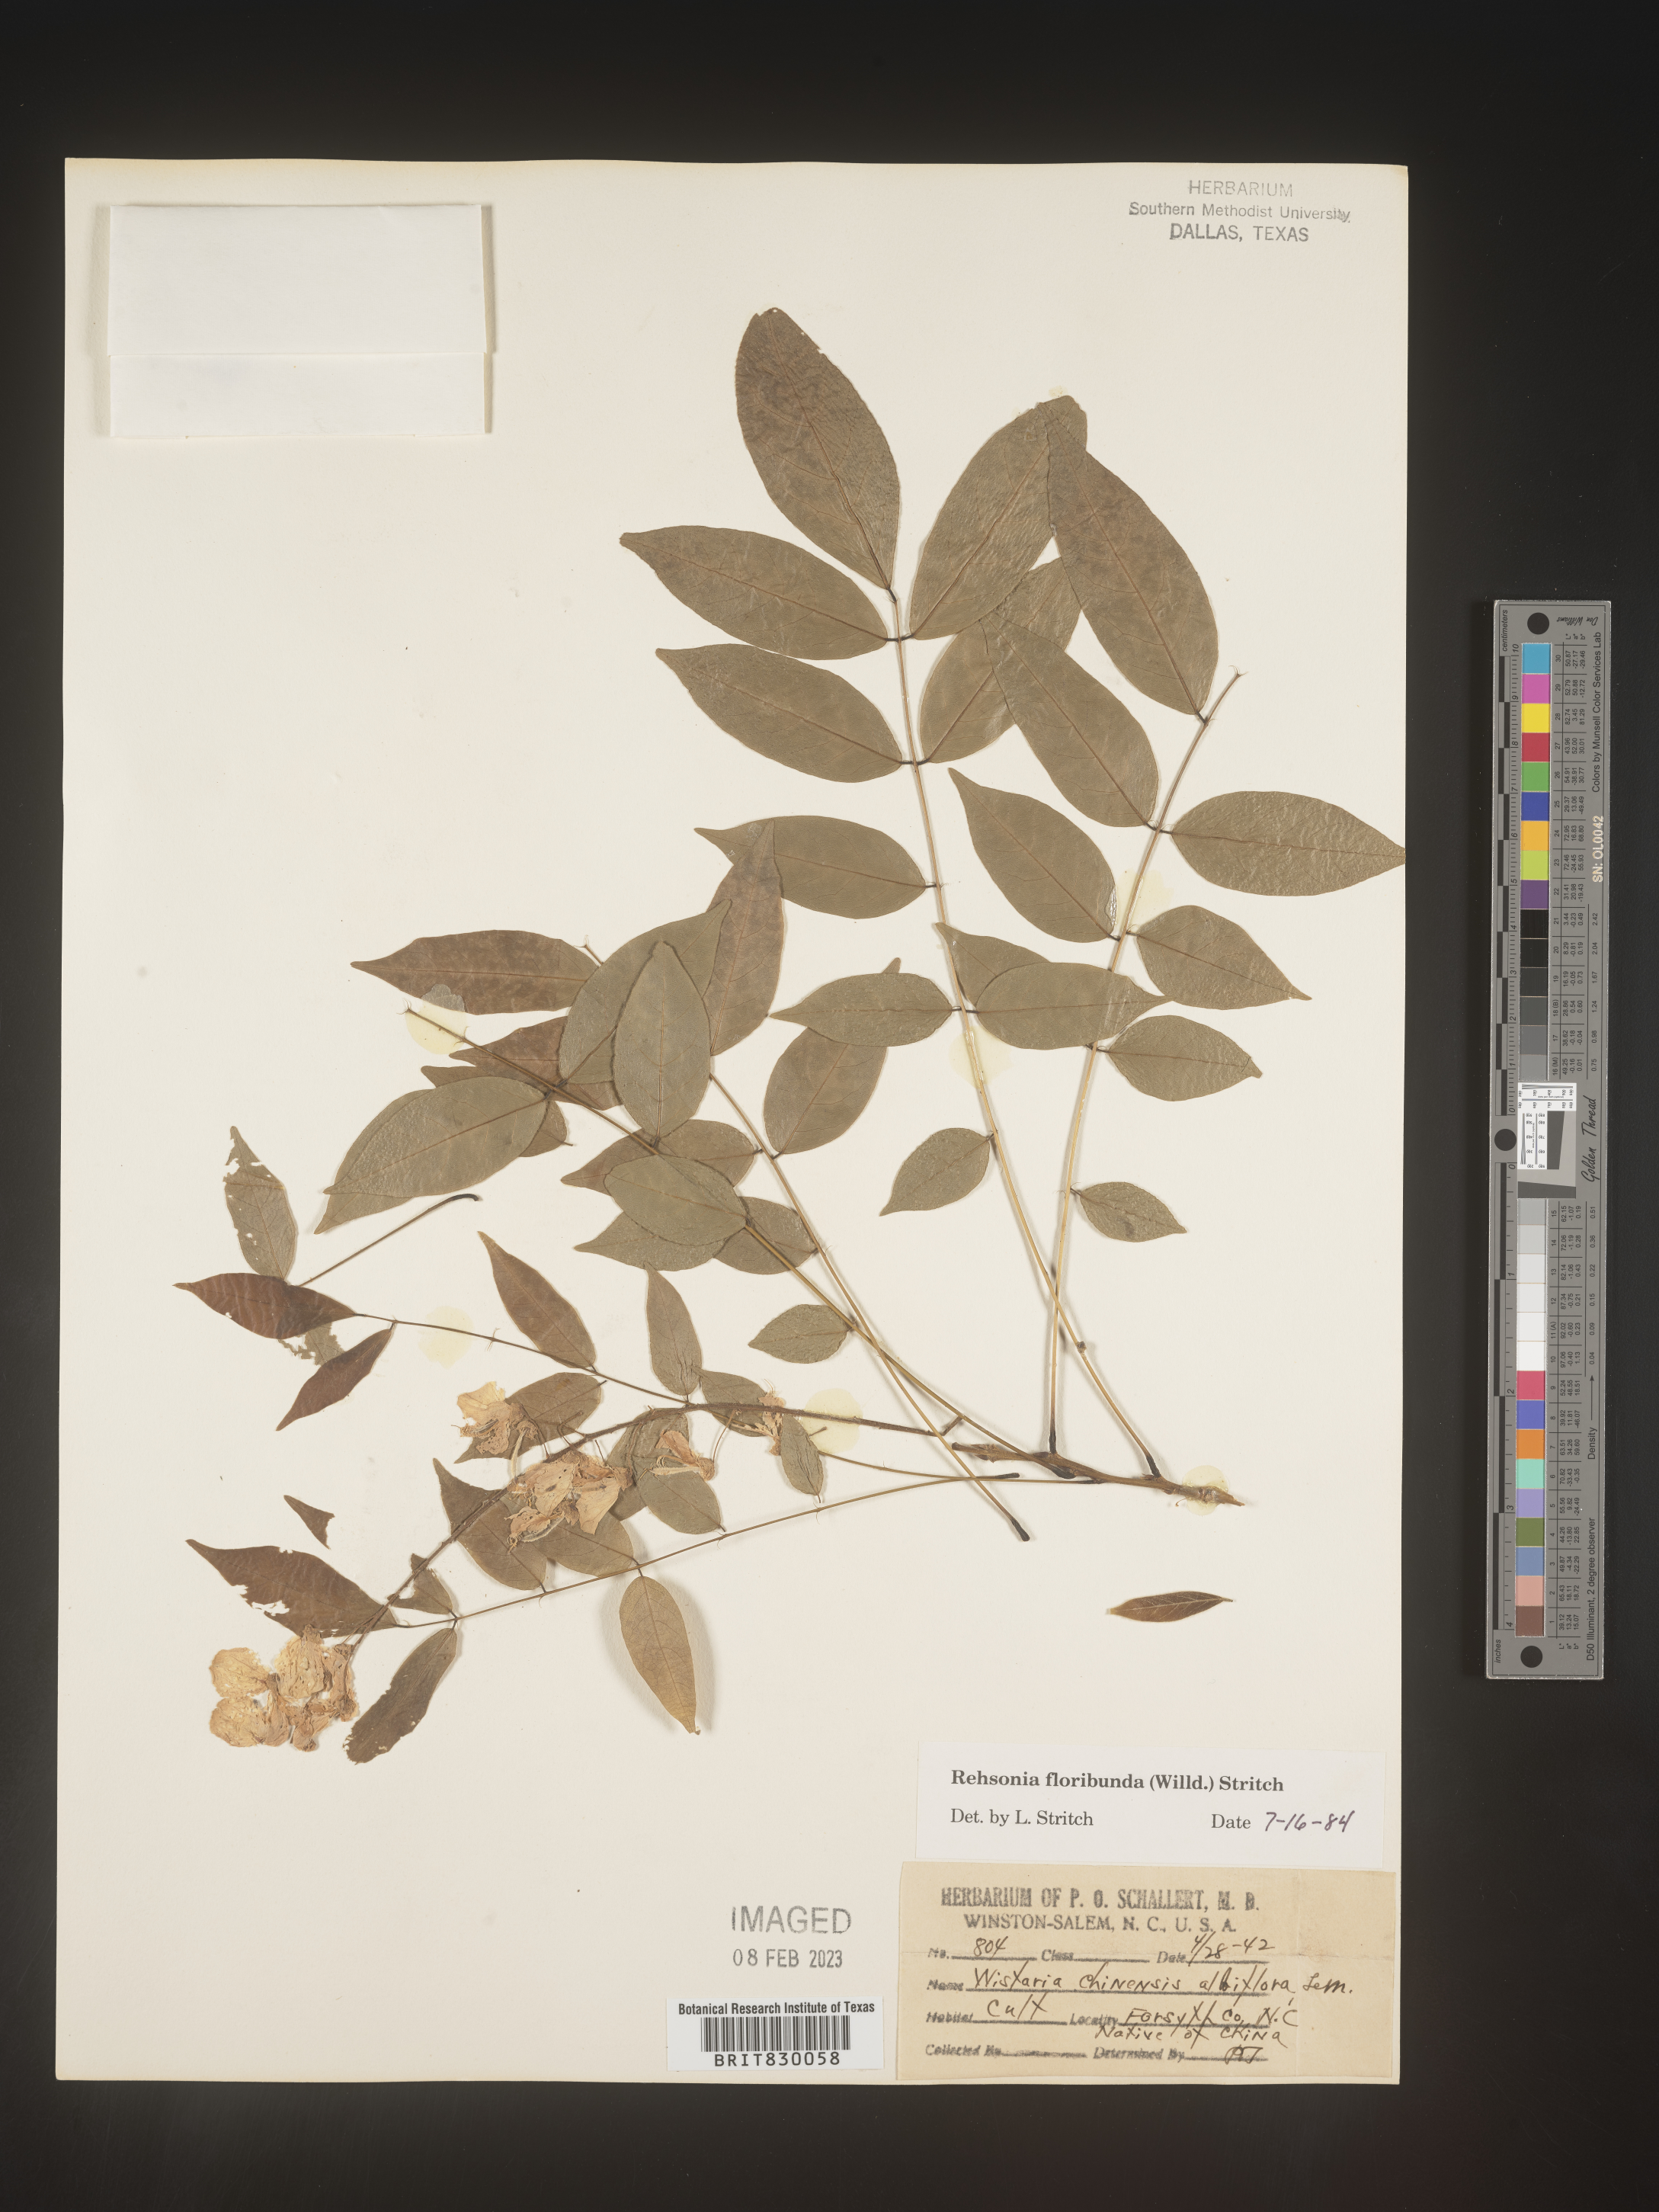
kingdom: Plantae
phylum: Tracheophyta
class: Magnoliopsida
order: Fabales
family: Fabaceae
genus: Wisteria
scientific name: Wisteria
